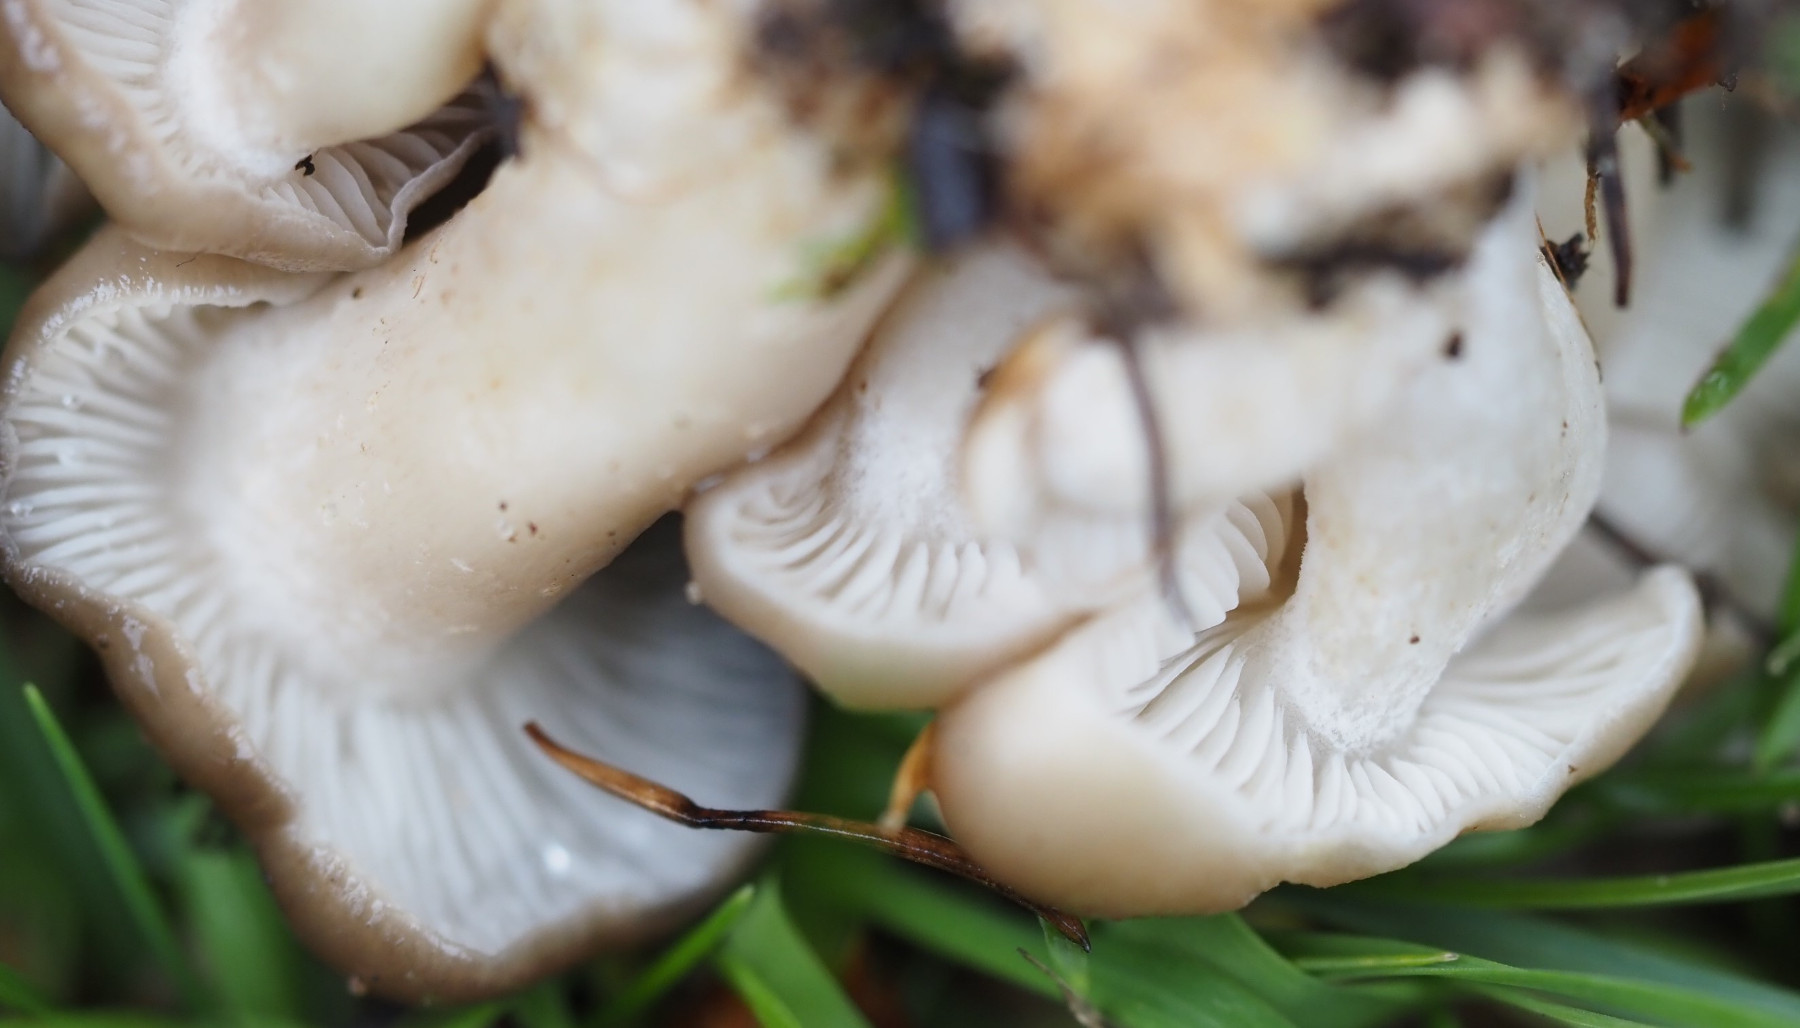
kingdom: Fungi
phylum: Basidiomycota
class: Agaricomycetes
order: Agaricales
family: Lyophyllaceae
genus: Lyophyllum
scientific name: Lyophyllum decastes
